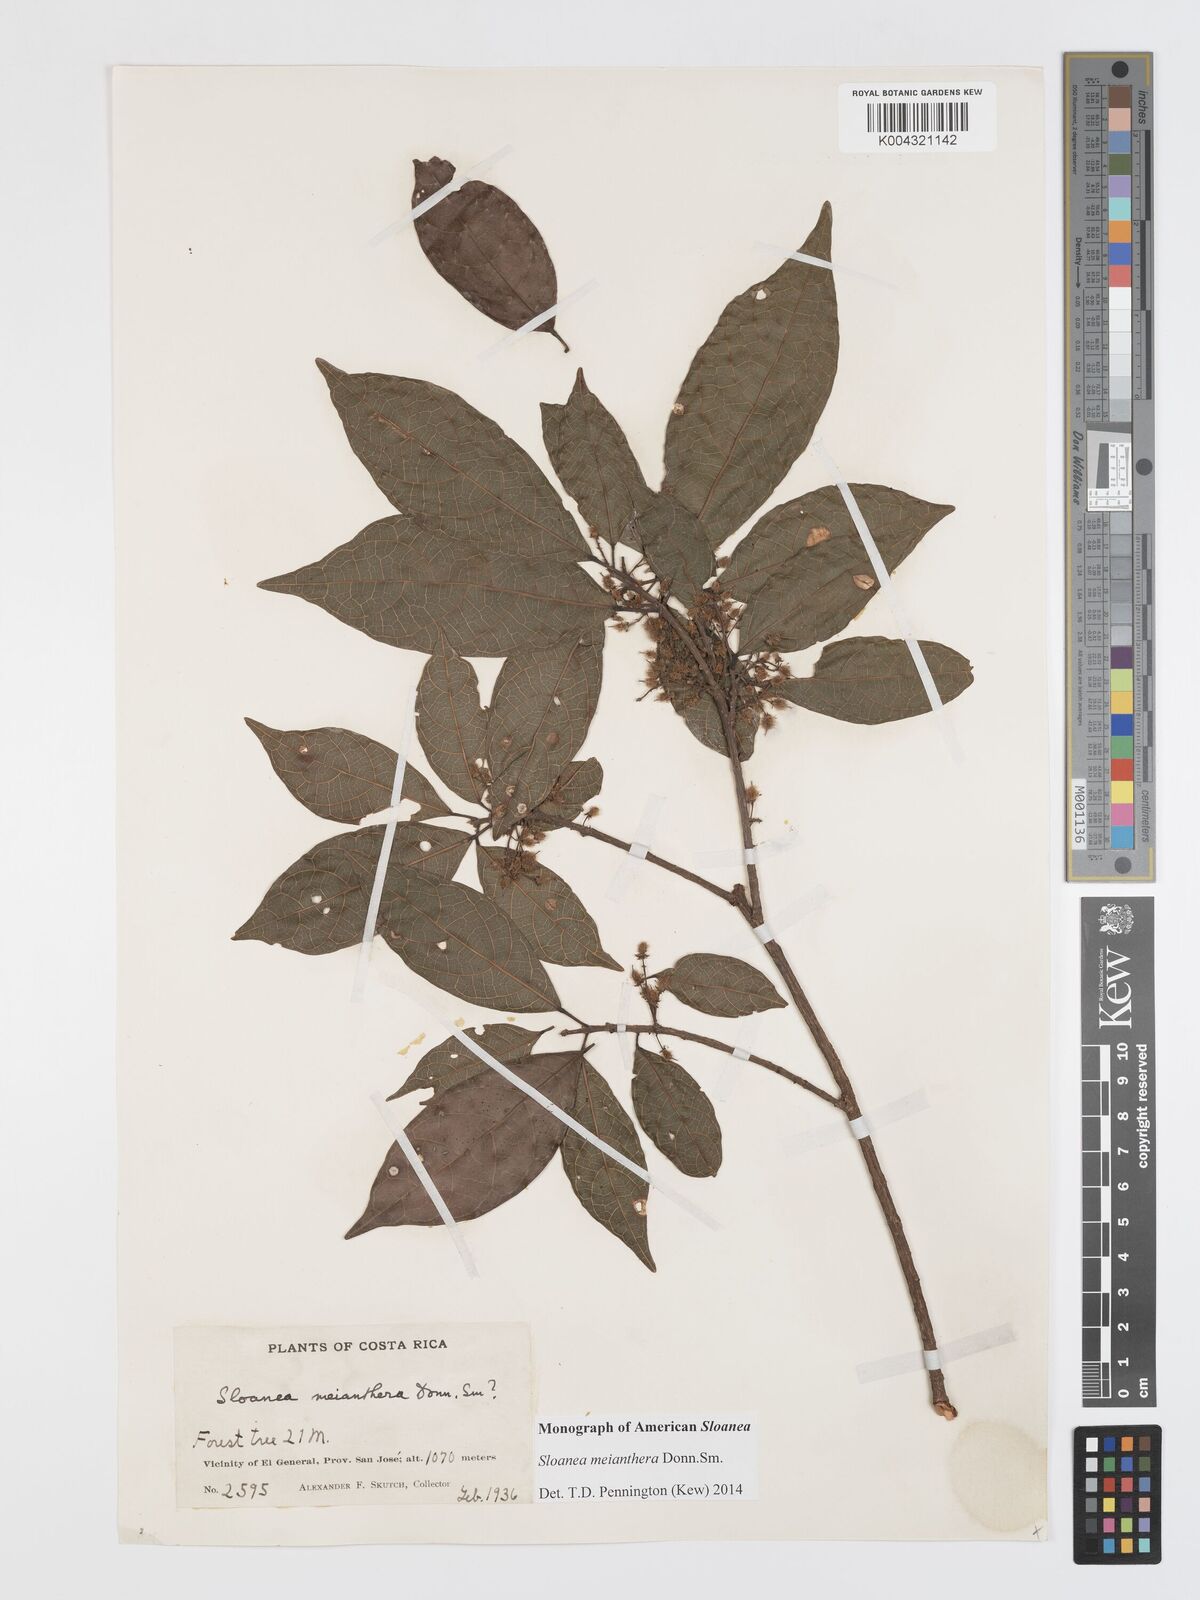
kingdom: Plantae
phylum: Tracheophyta
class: Magnoliopsida
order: Oxalidales
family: Elaeocarpaceae
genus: Sloanea
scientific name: Sloanea meianthera
